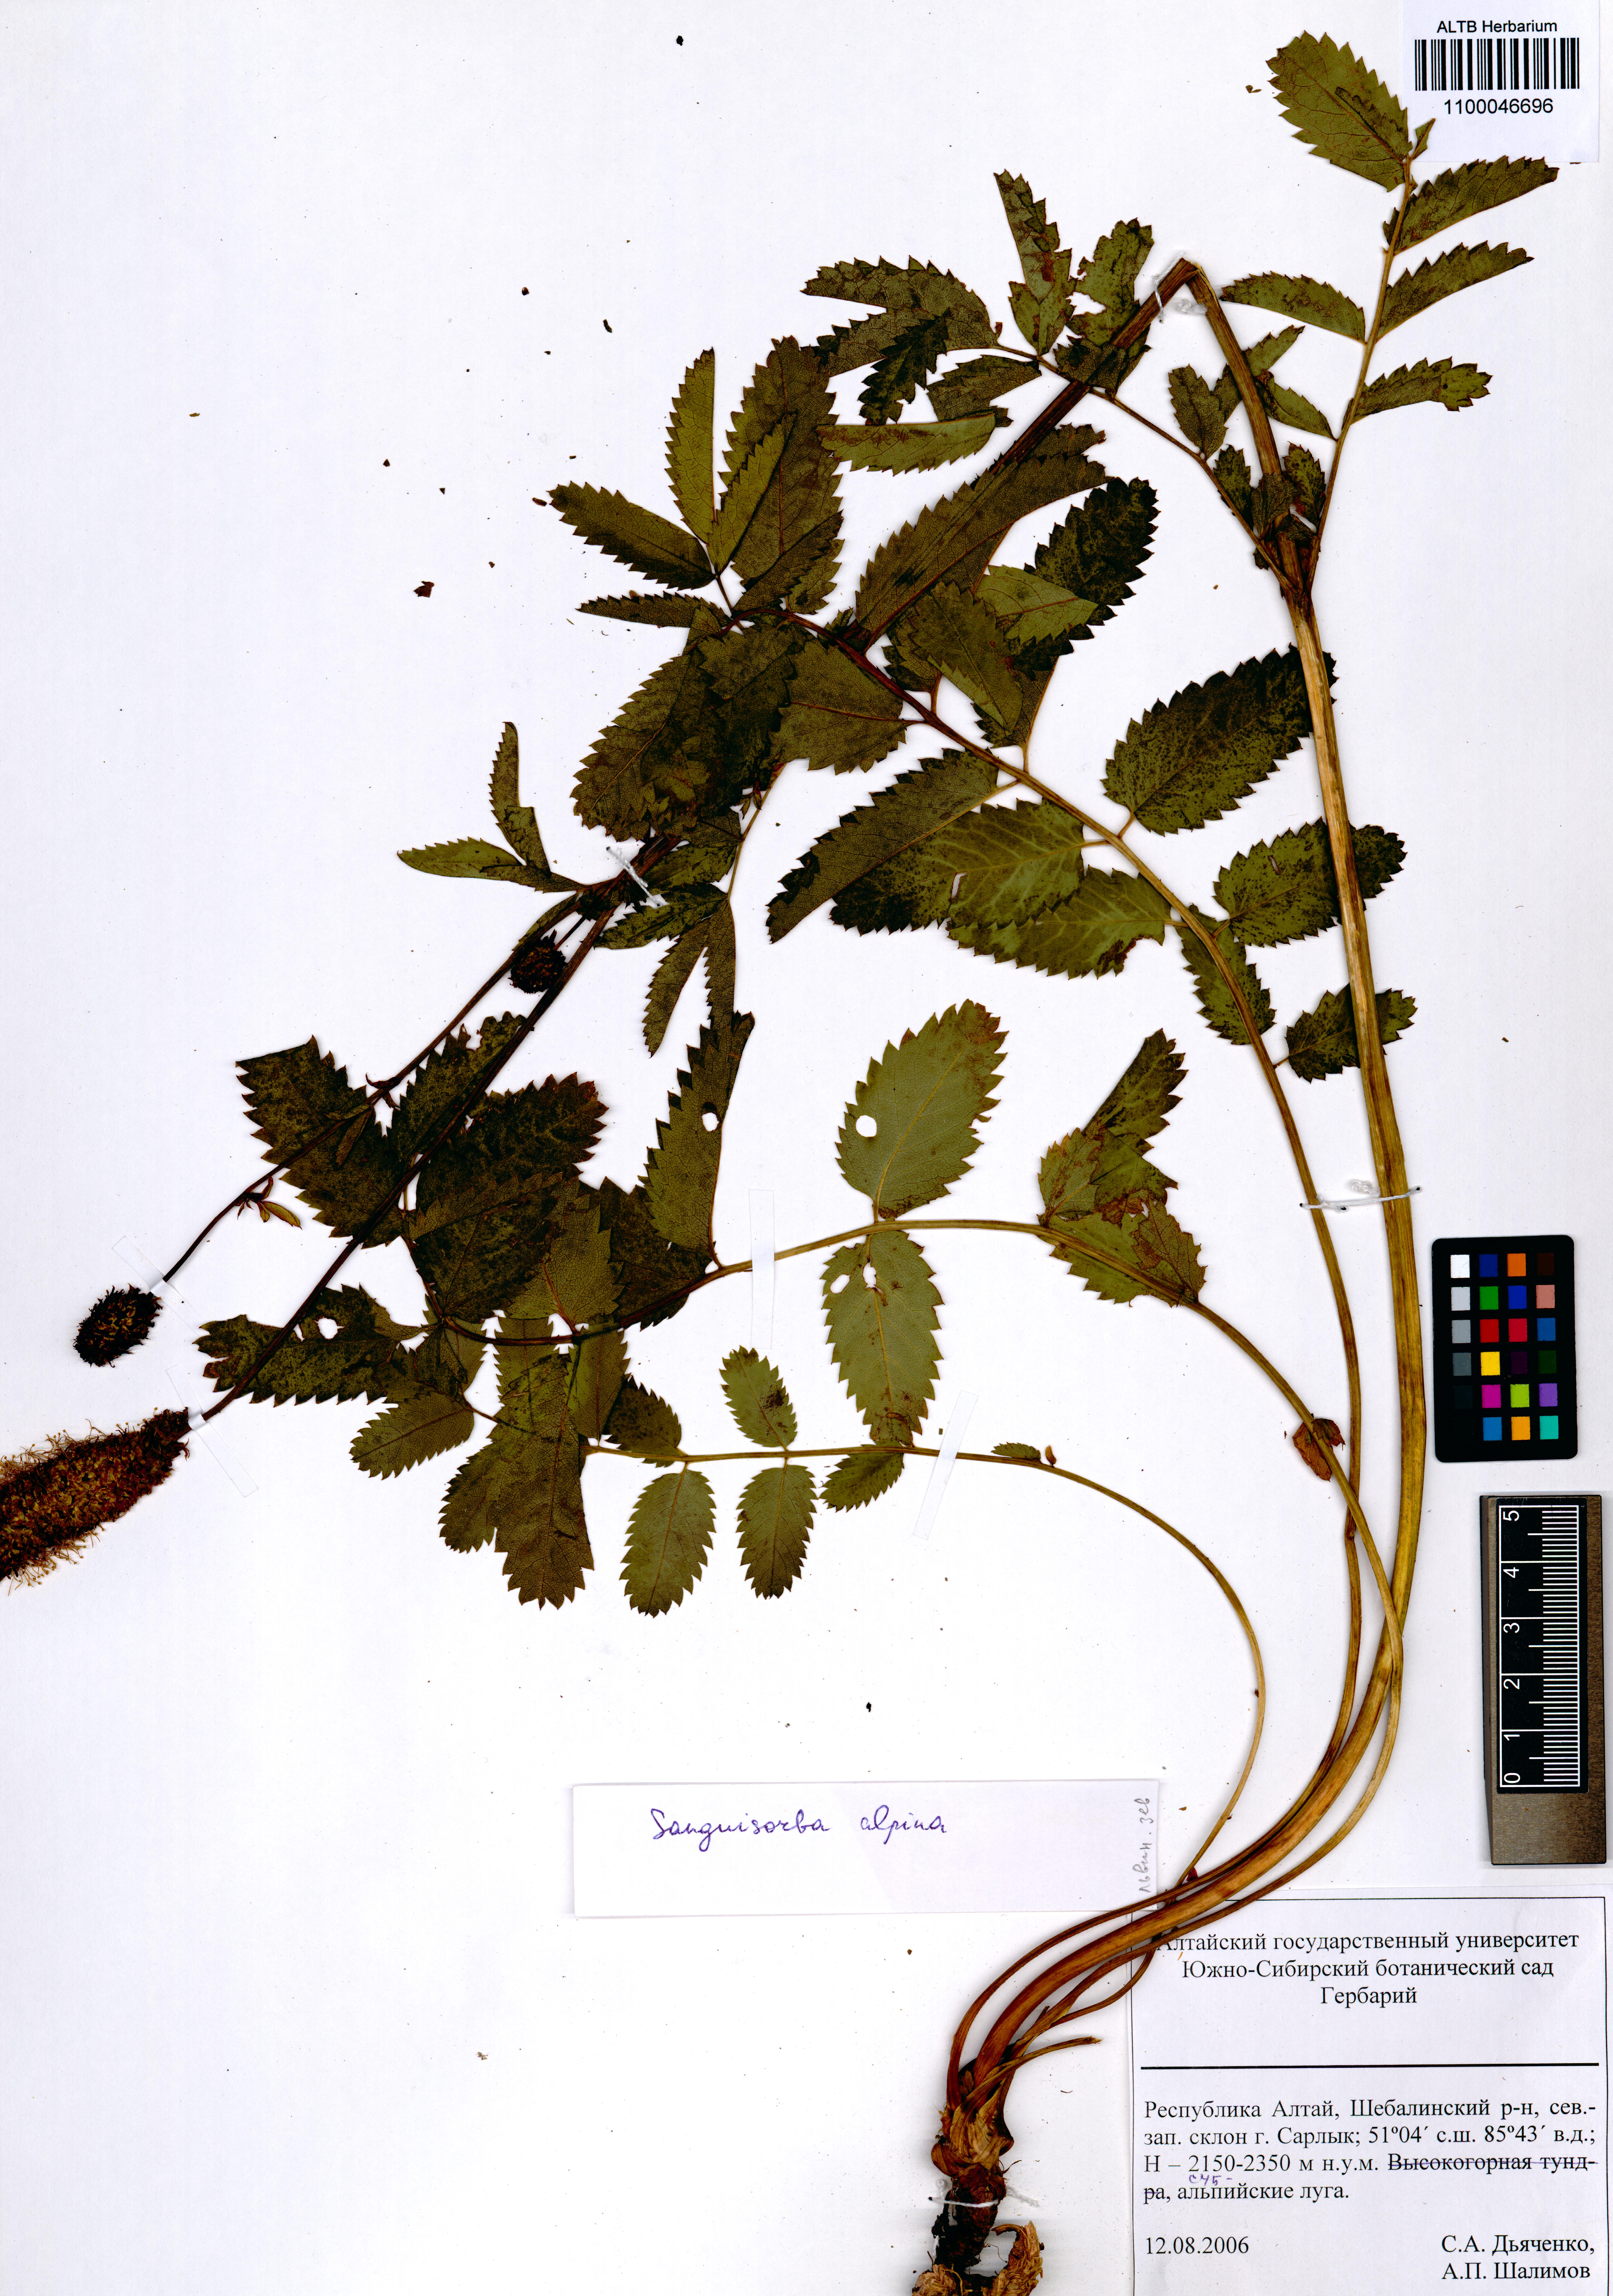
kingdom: Plantae
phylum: Tracheophyta
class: Magnoliopsida
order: Rosales
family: Rosaceae
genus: Sanguisorba
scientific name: Sanguisorba alpina
